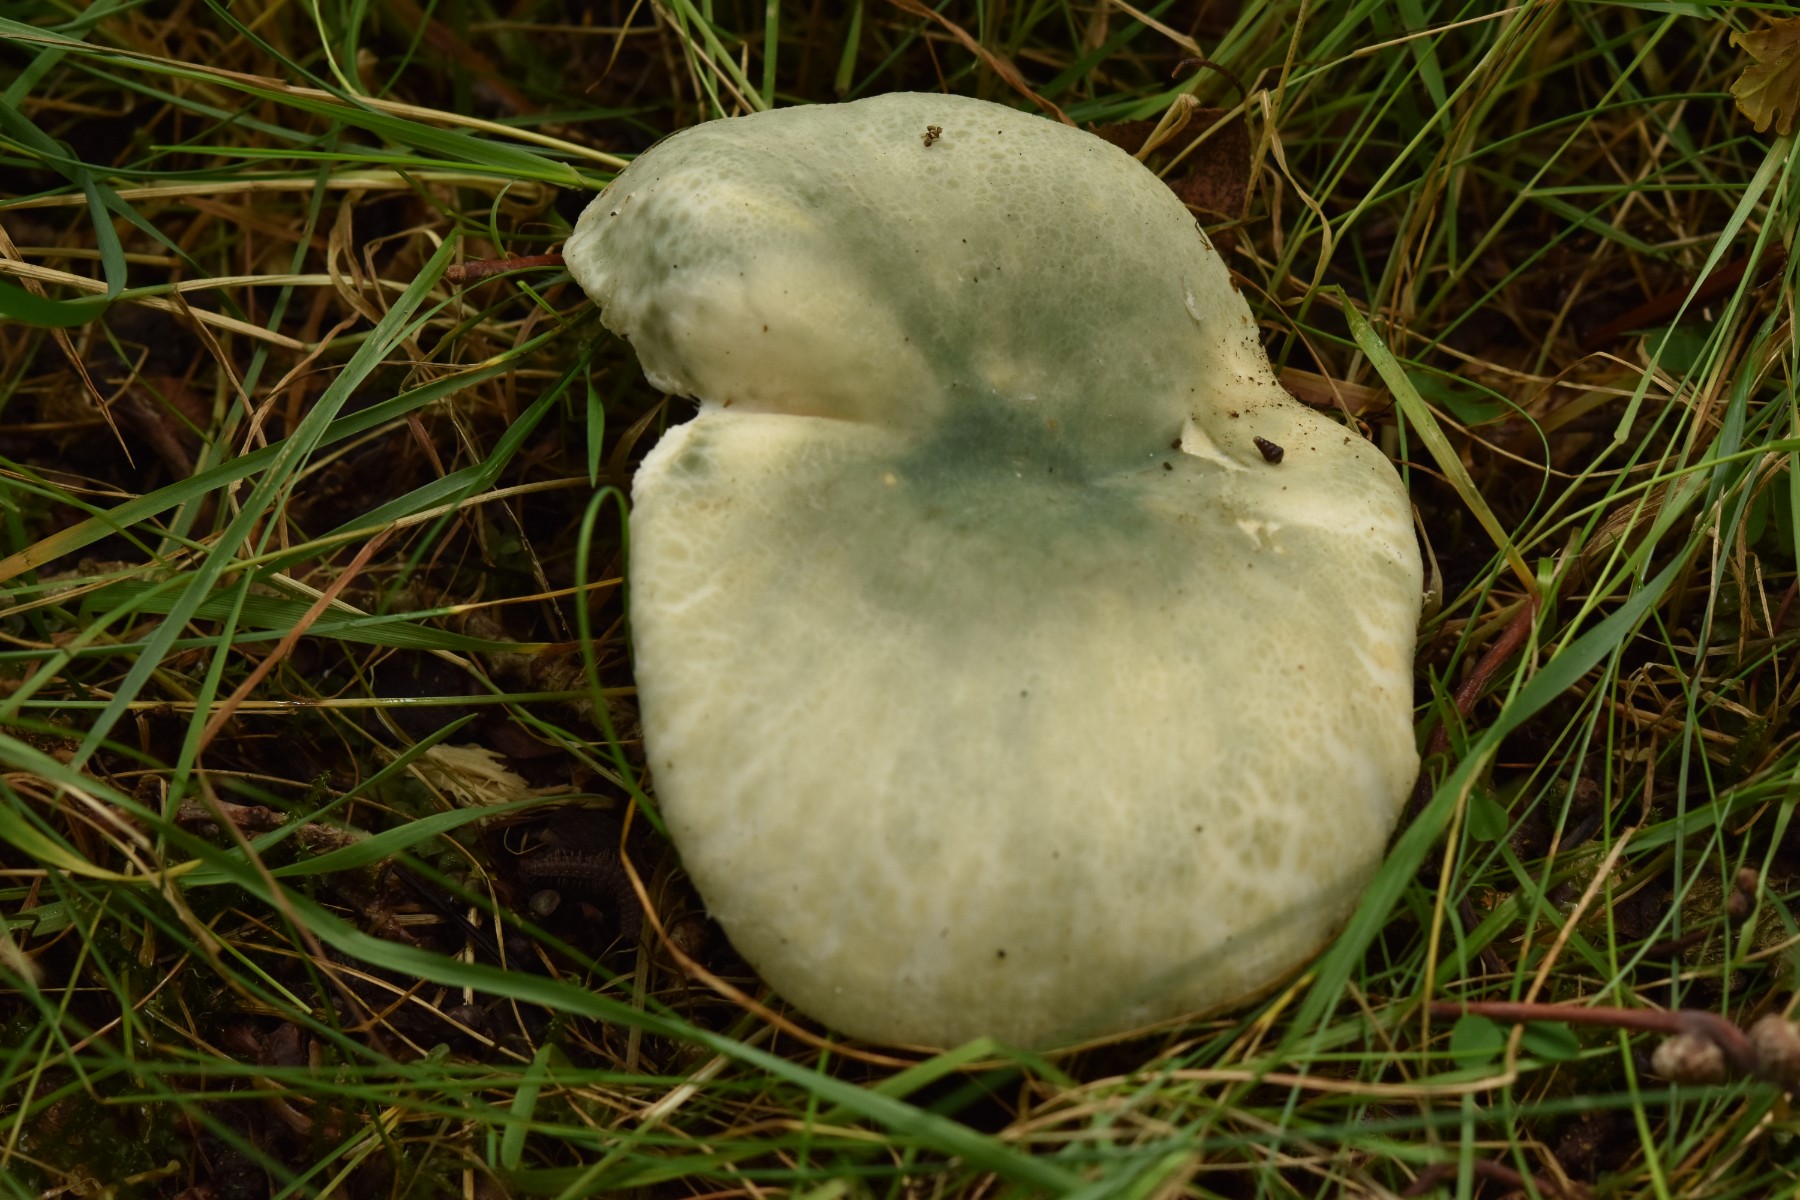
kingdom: Fungi
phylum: Basidiomycota
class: Agaricomycetes
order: Russulales
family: Russulaceae
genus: Russula
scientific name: Russula virescens
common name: spanskgrøn skørhat
